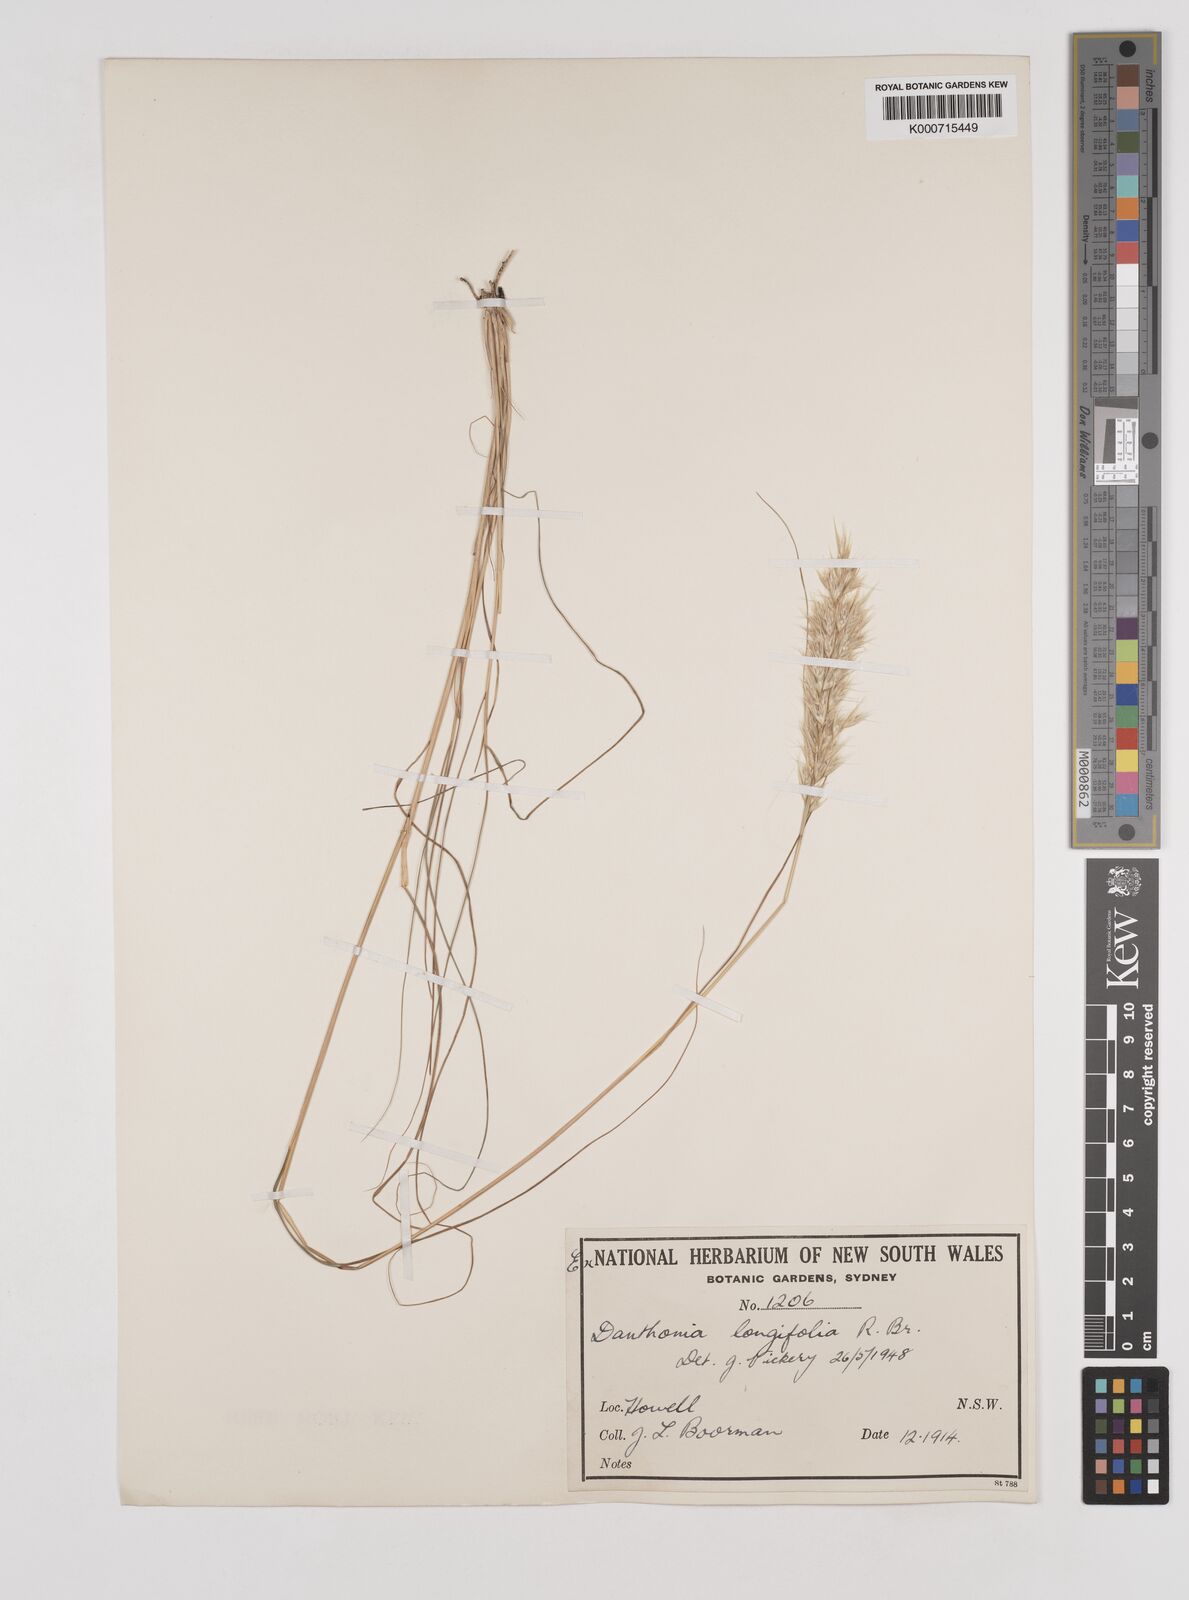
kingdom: Plantae
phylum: Tracheophyta
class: Liliopsida
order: Poales
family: Poaceae
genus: Rytidosperma
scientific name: Rytidosperma longifolium
